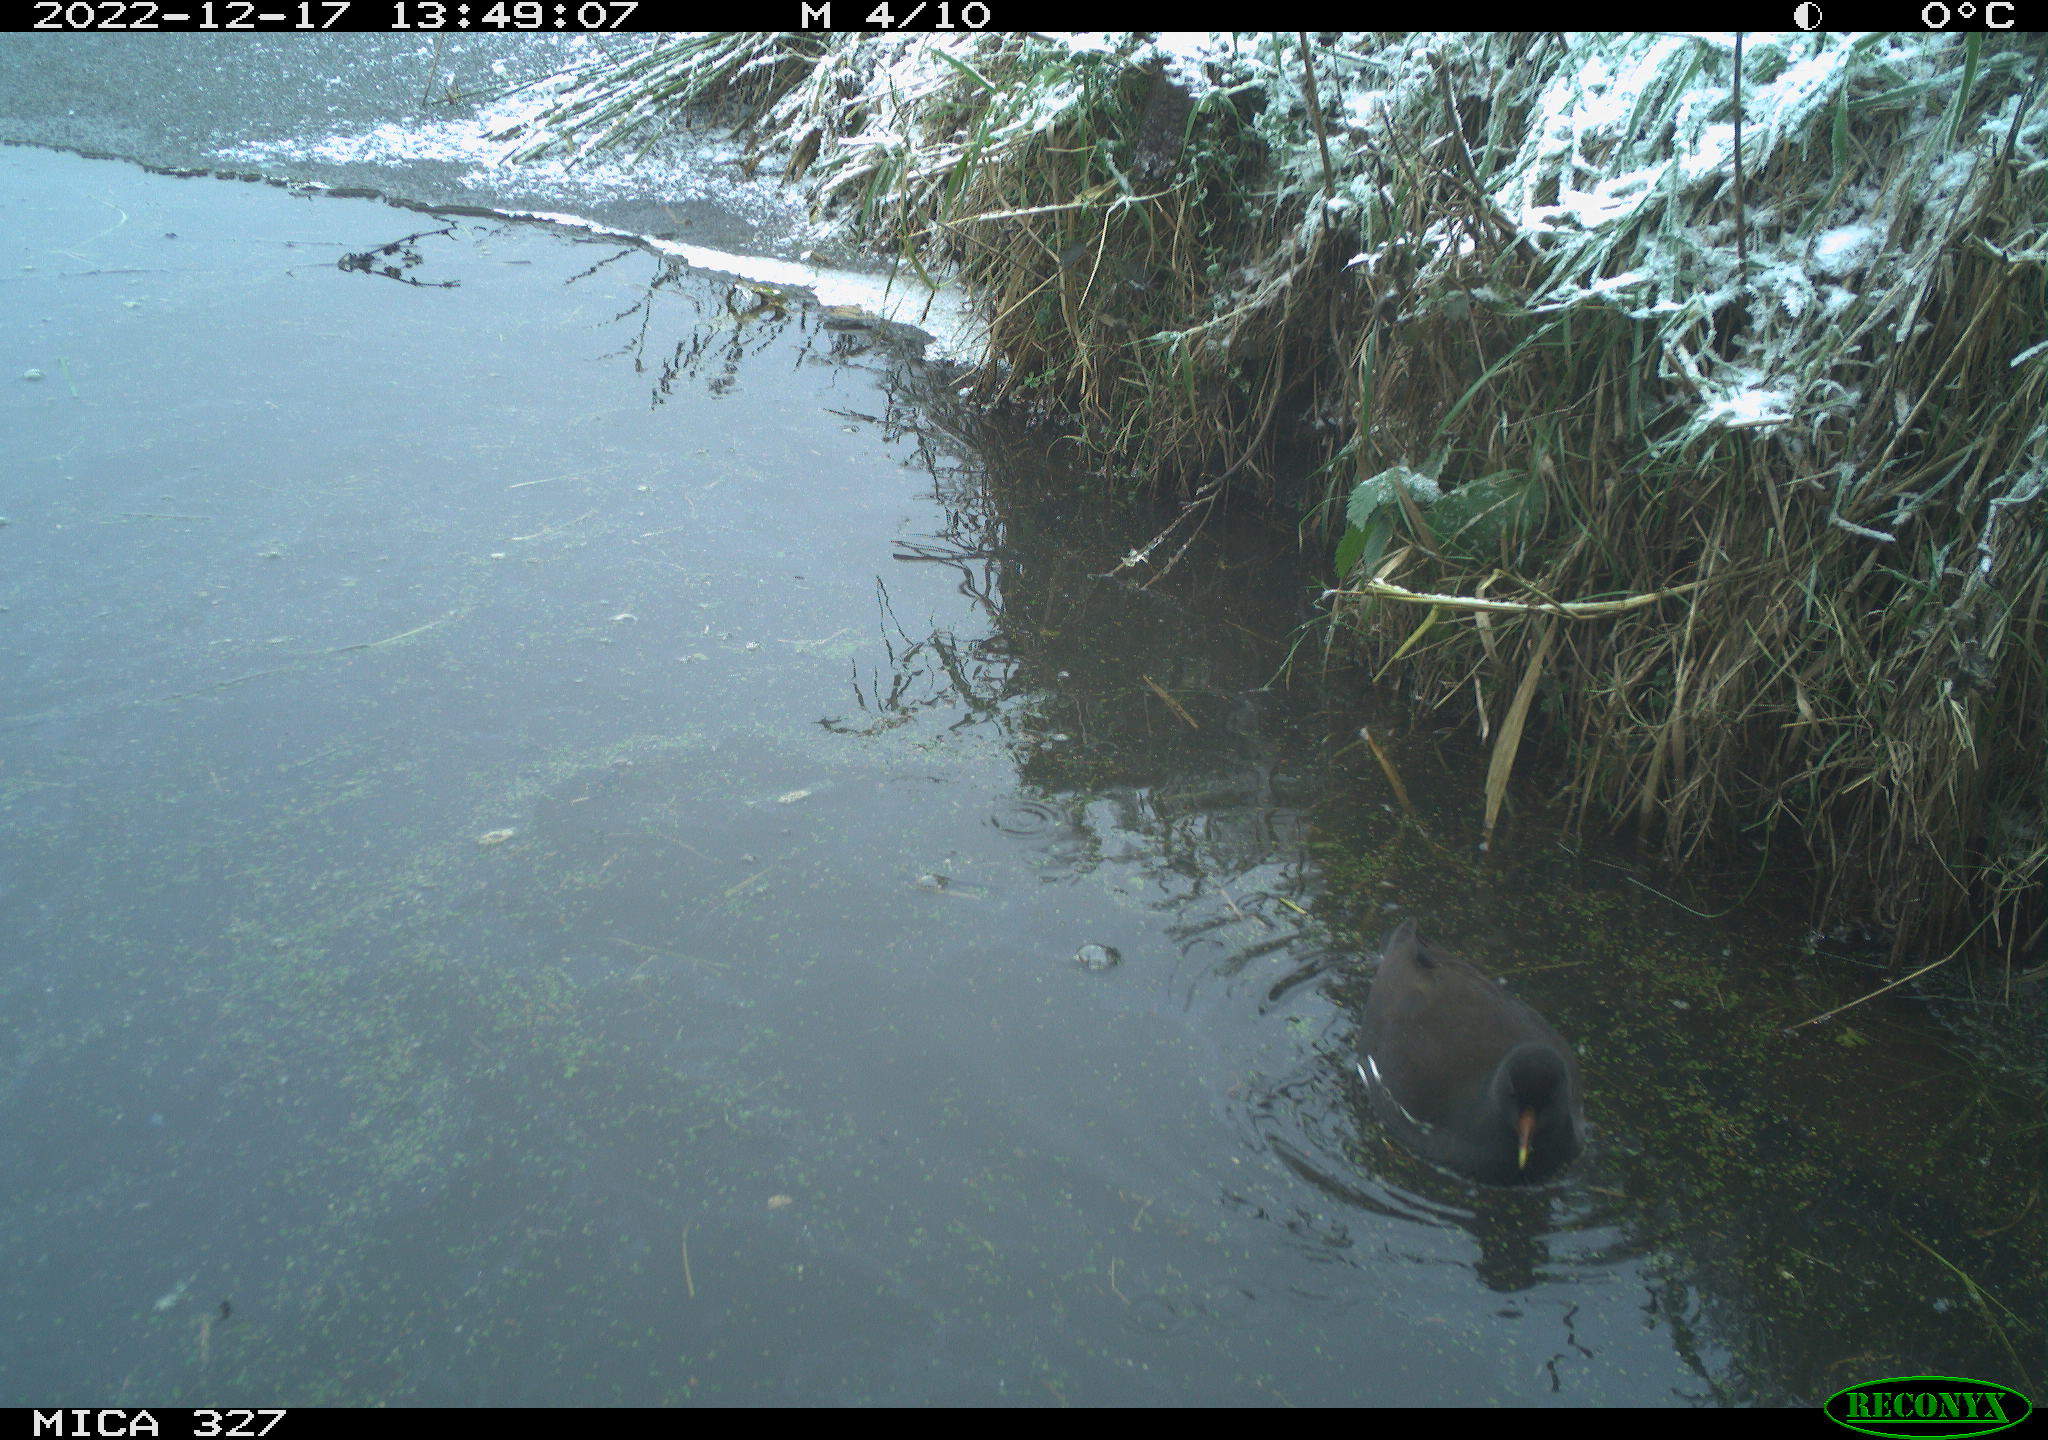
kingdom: Animalia
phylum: Chordata
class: Aves
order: Gruiformes
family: Rallidae
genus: Gallinula
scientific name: Gallinula chloropus
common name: Common moorhen
